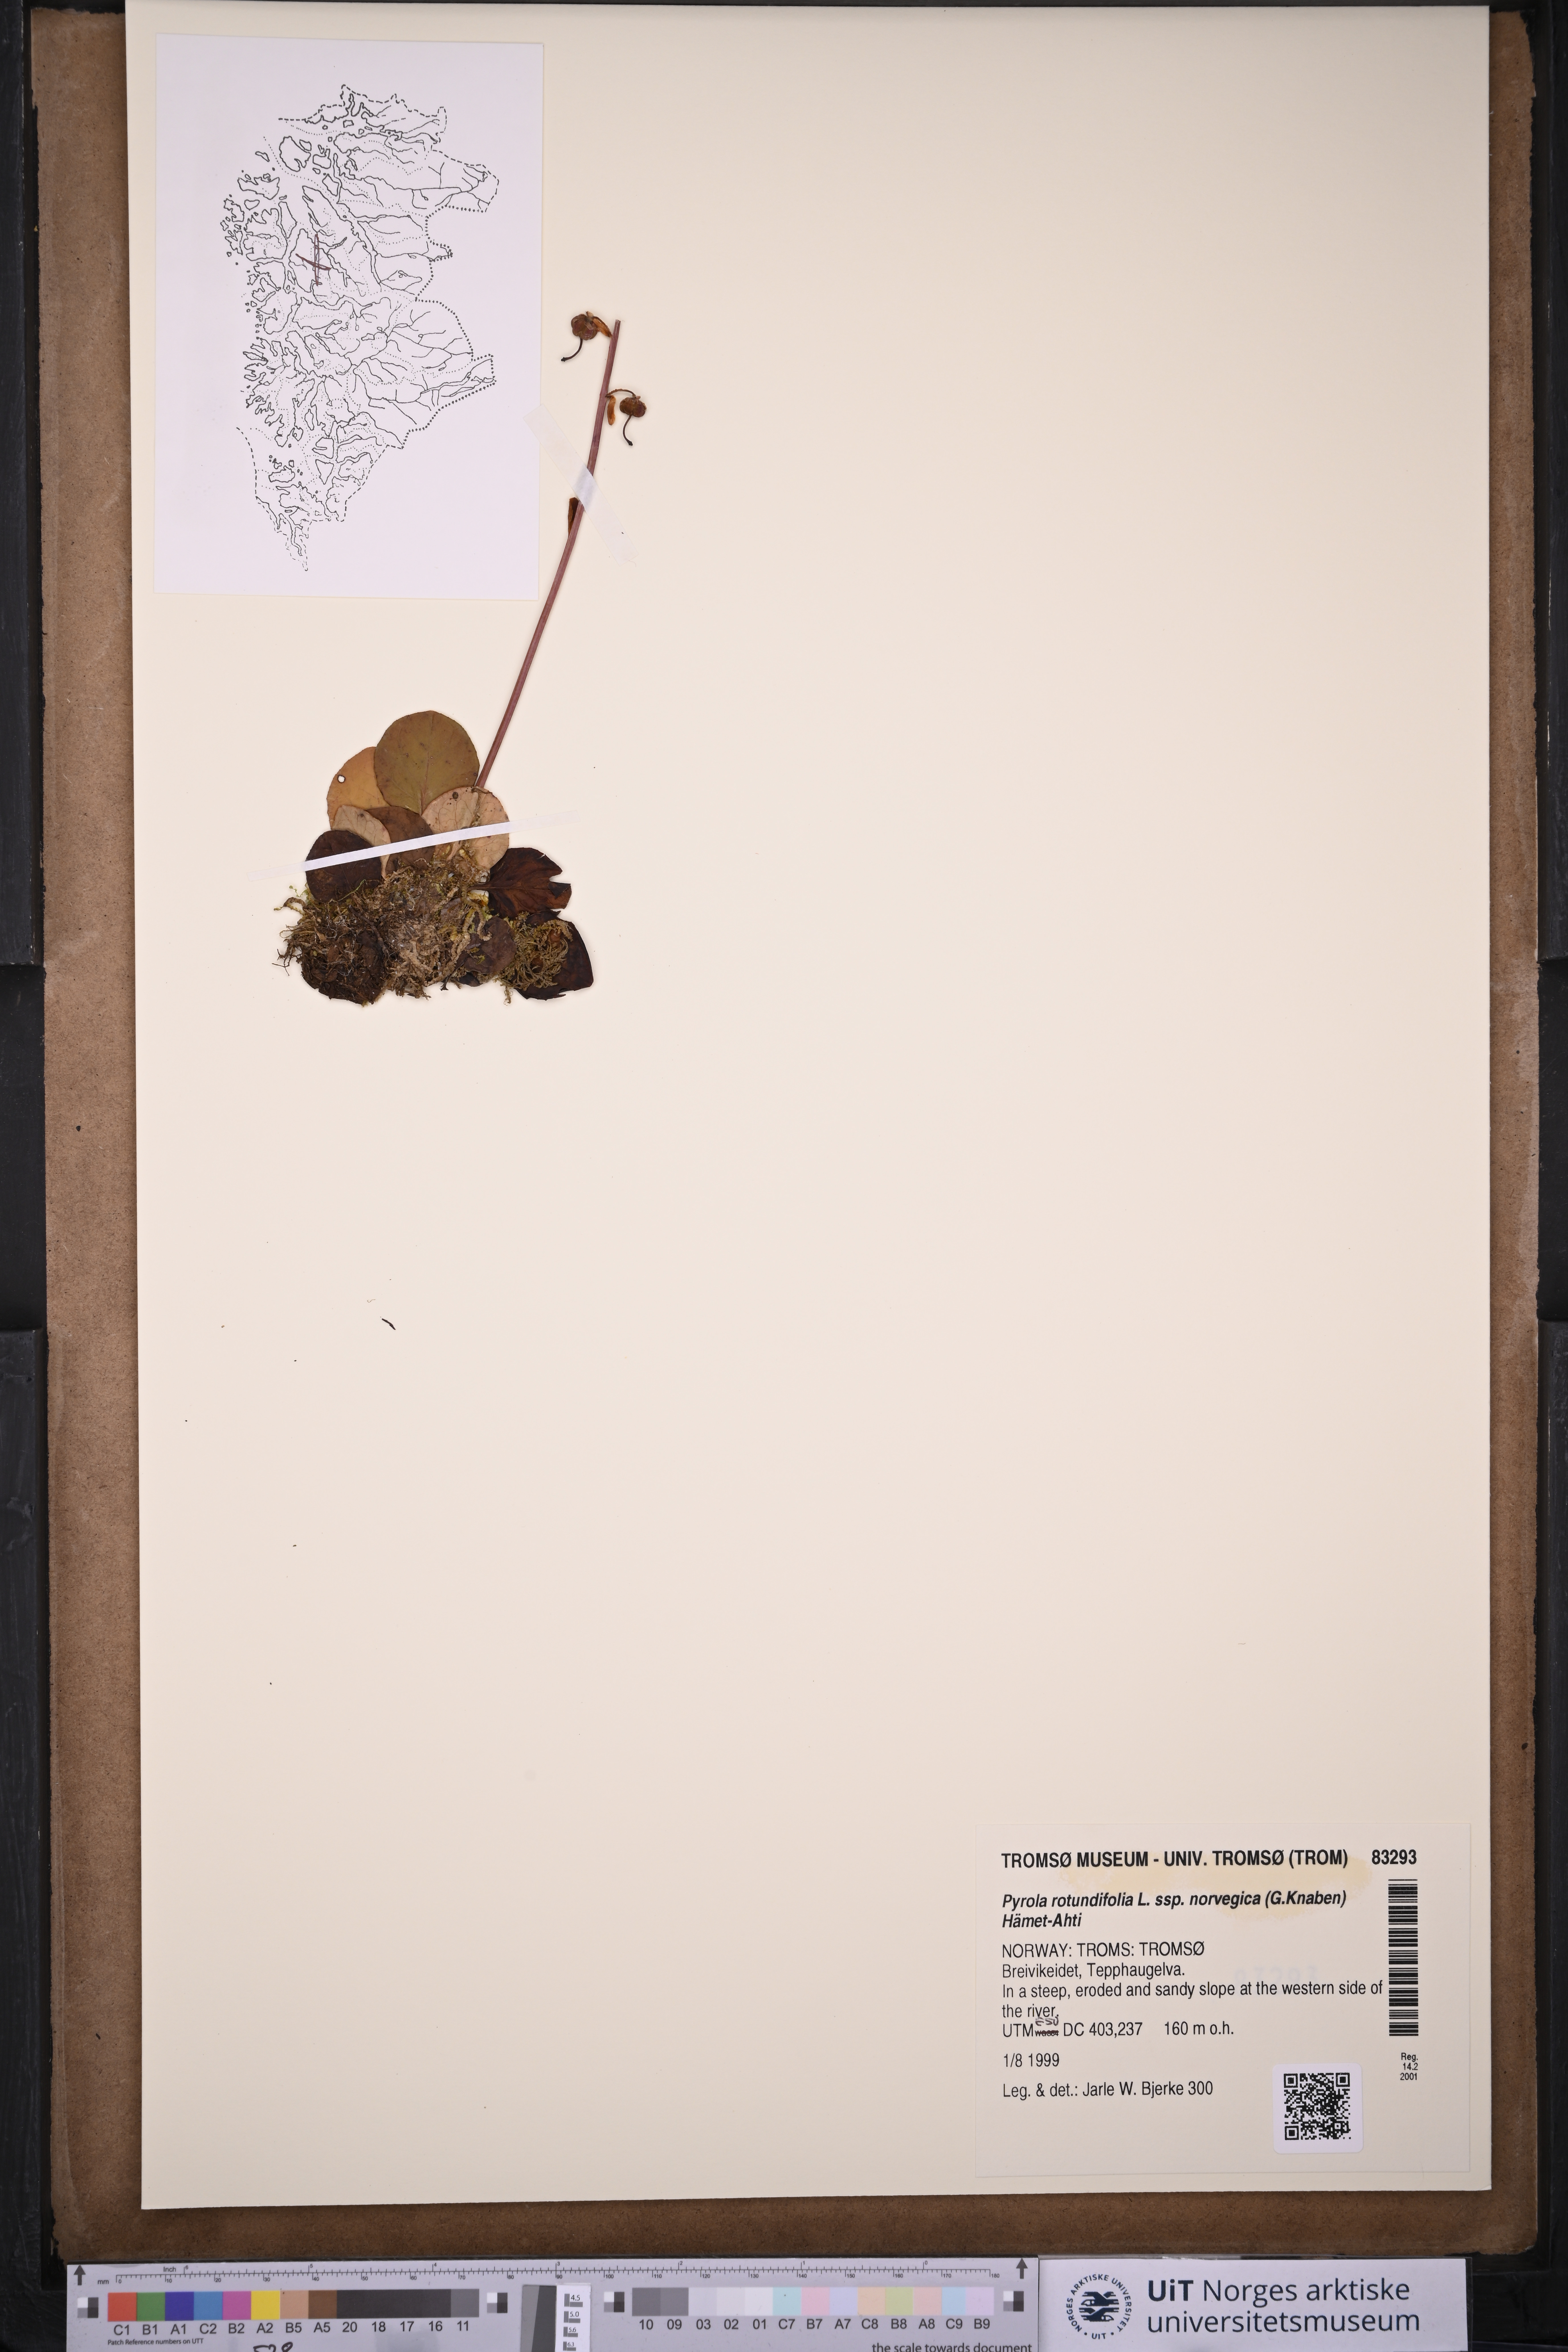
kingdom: Plantae
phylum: Tracheophyta
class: Magnoliopsida
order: Ericales
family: Ericaceae
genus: Pyrola
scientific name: Pyrola rotundifolia
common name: Round-leaved wintergreen
